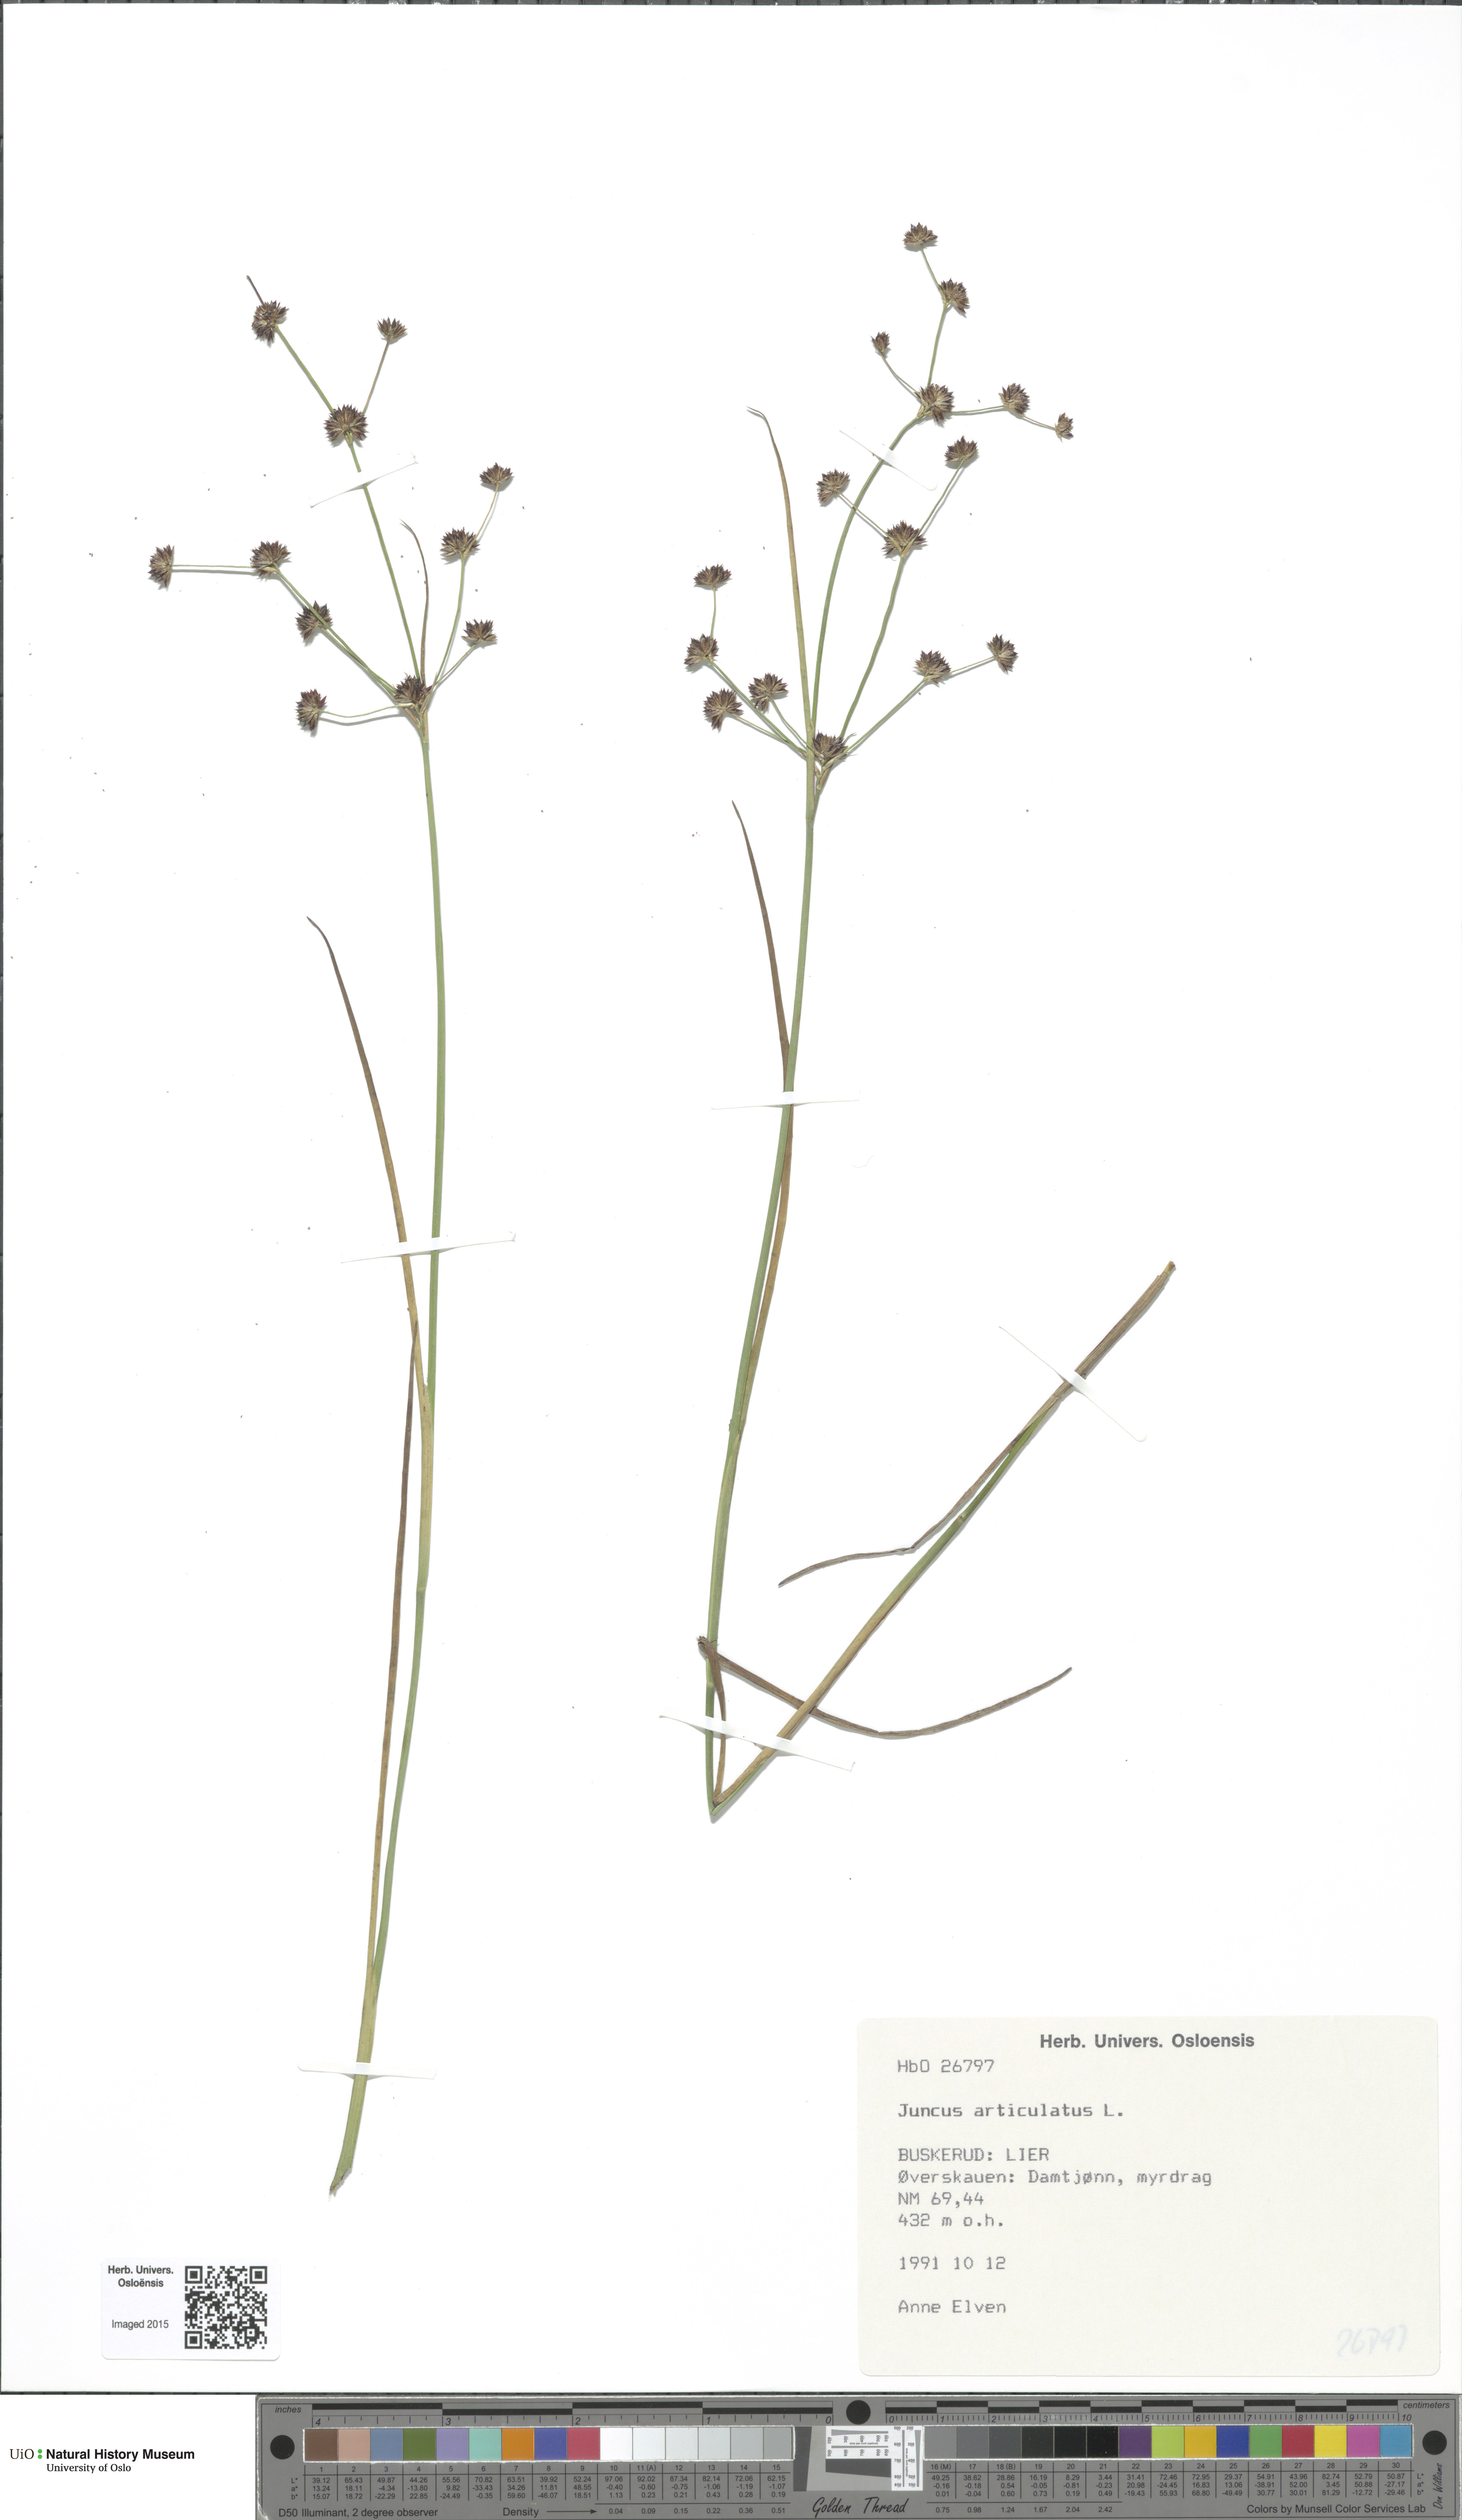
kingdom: Plantae
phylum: Tracheophyta
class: Liliopsida
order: Poales
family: Juncaceae
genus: Juncus
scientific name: Juncus articulatus
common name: Jointed rush
